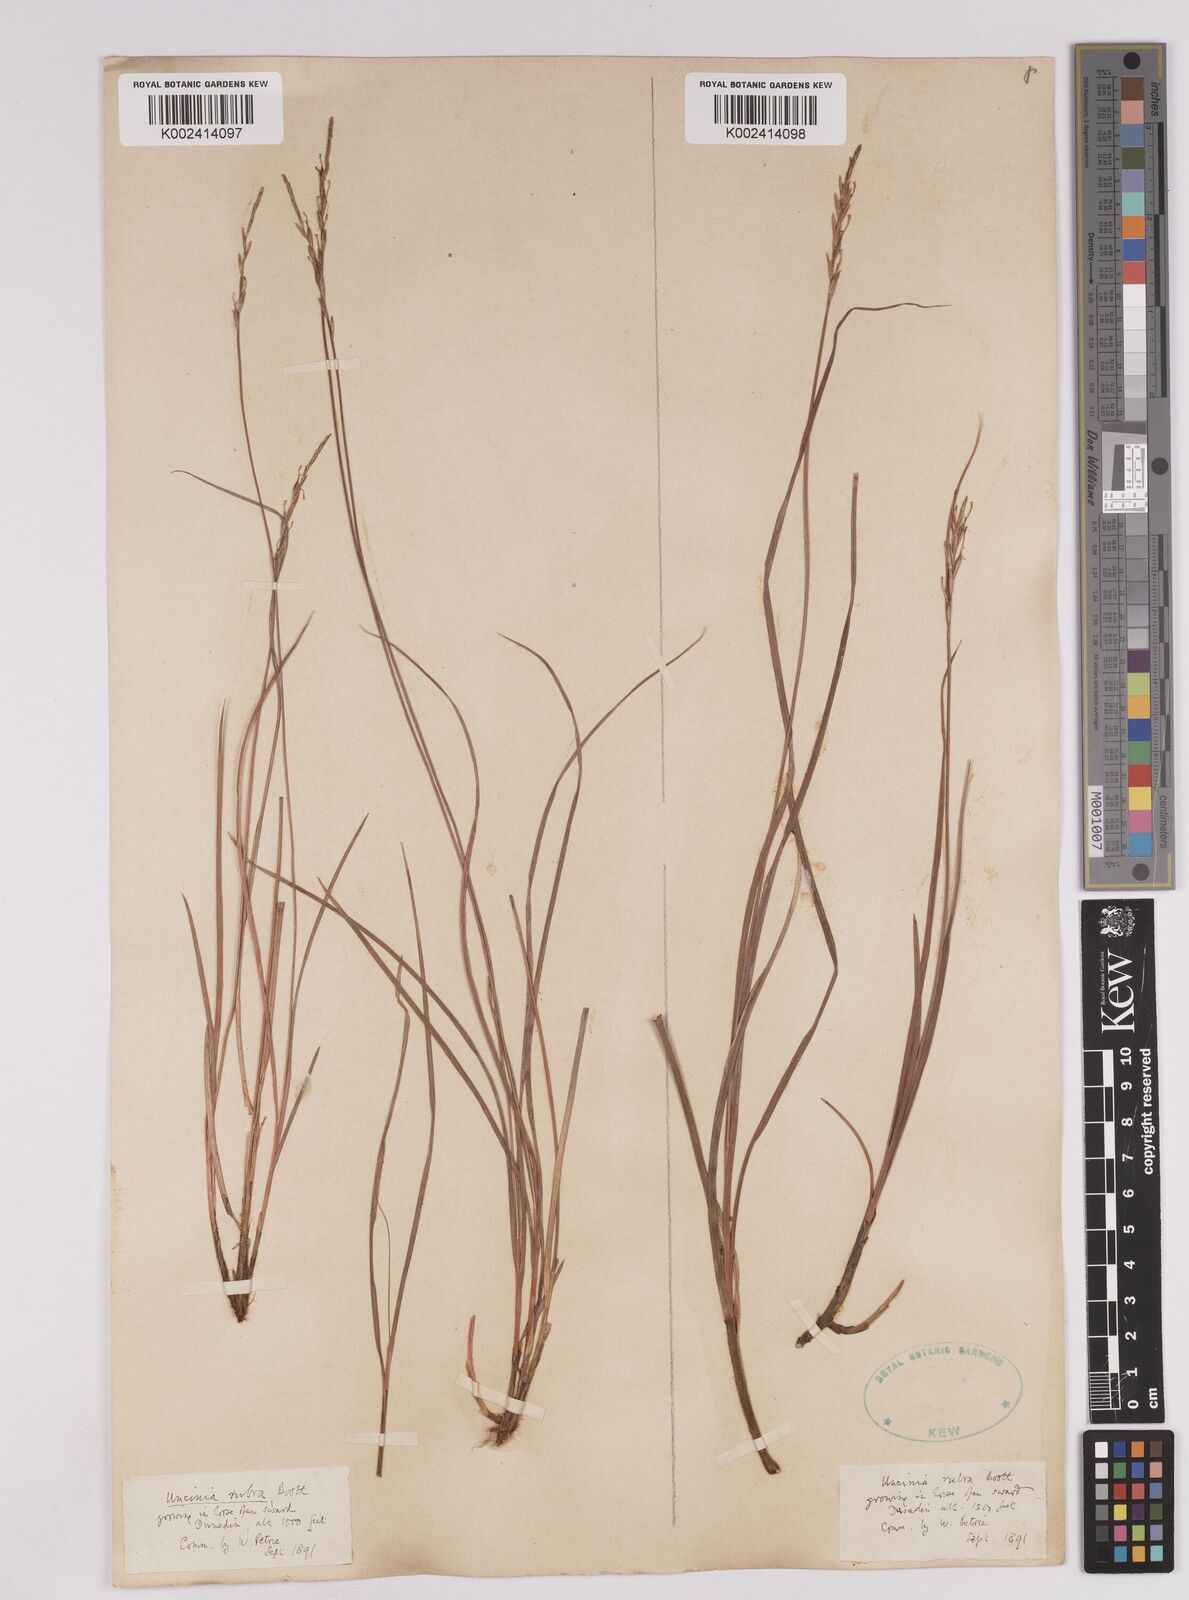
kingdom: Plantae
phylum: Tracheophyta
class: Liliopsida
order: Poales
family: Cyperaceae
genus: Carex
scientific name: Carex punicea
